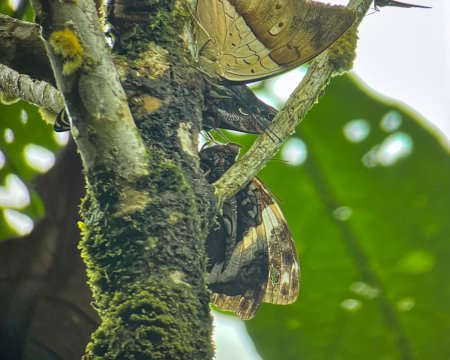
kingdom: Animalia
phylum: Arthropoda
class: Insecta
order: Lepidoptera
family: Nymphalidae
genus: Opsiphanes
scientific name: Opsiphanes cassiae
